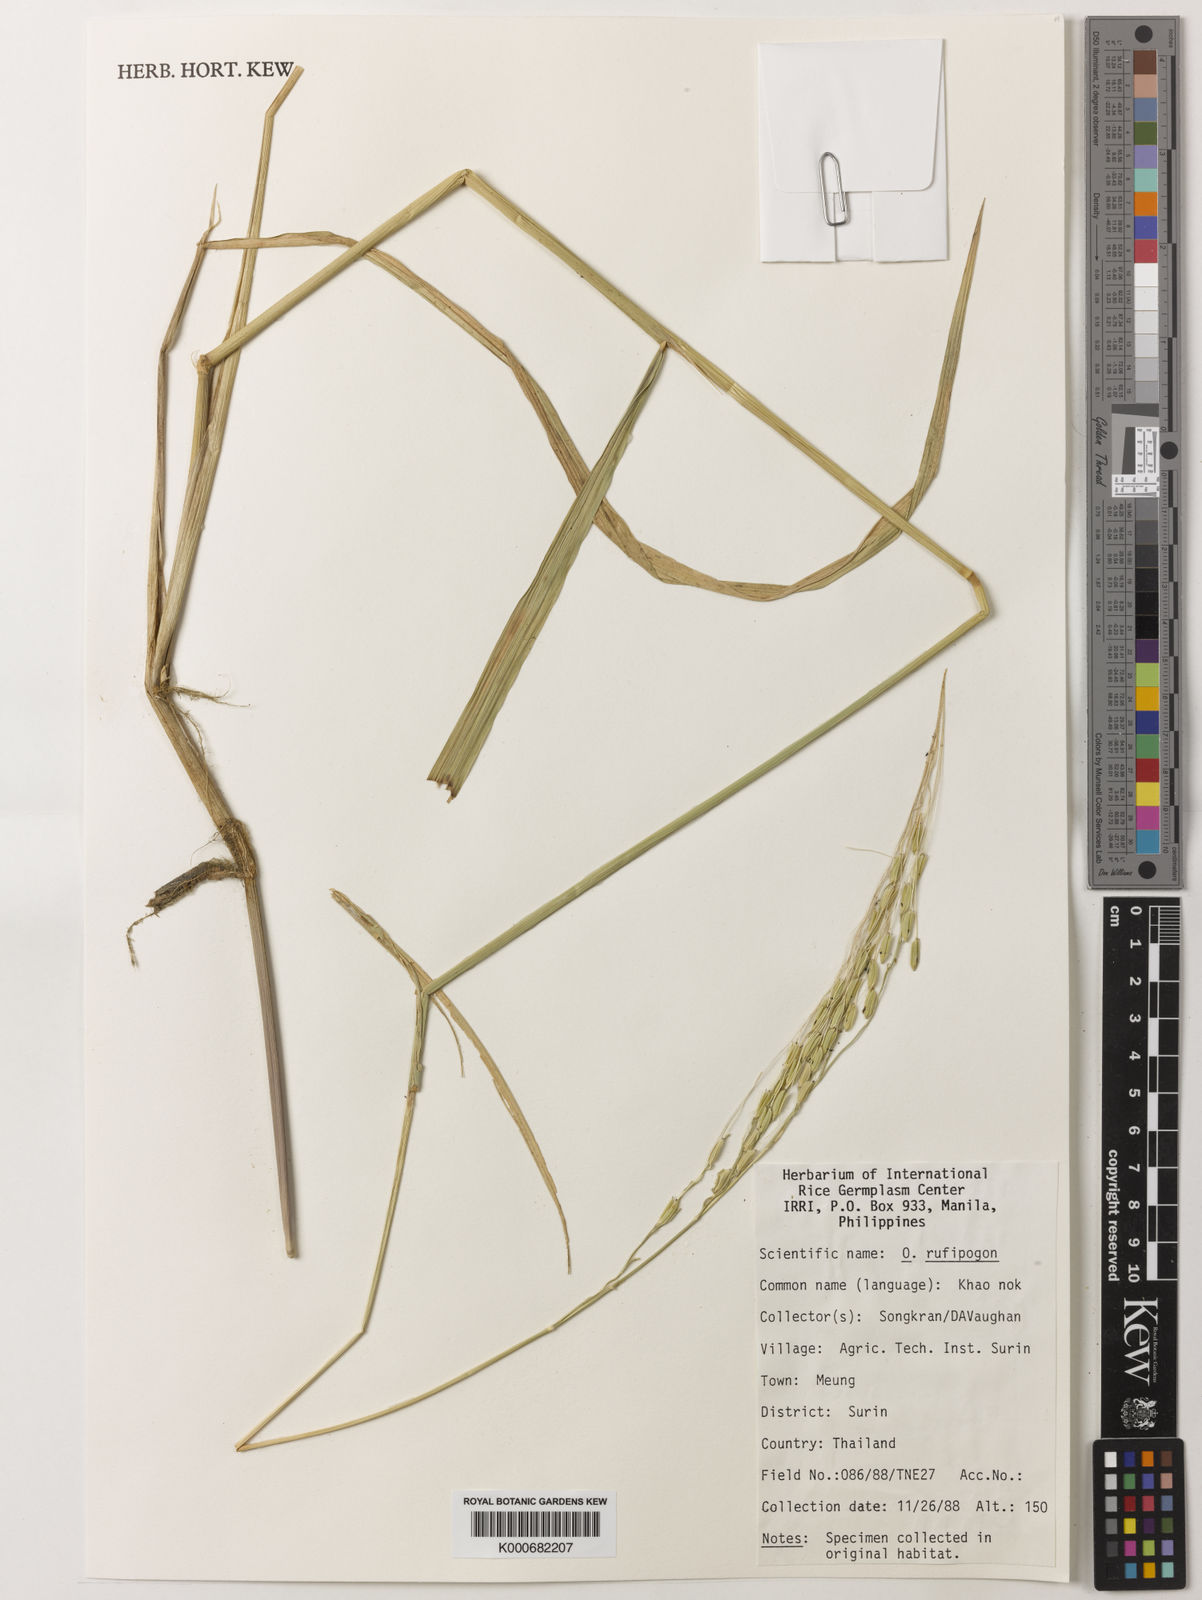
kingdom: Plantae
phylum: Tracheophyta
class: Liliopsida
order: Poales
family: Poaceae
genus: Oryza
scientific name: Oryza rufipogon
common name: Red rice
